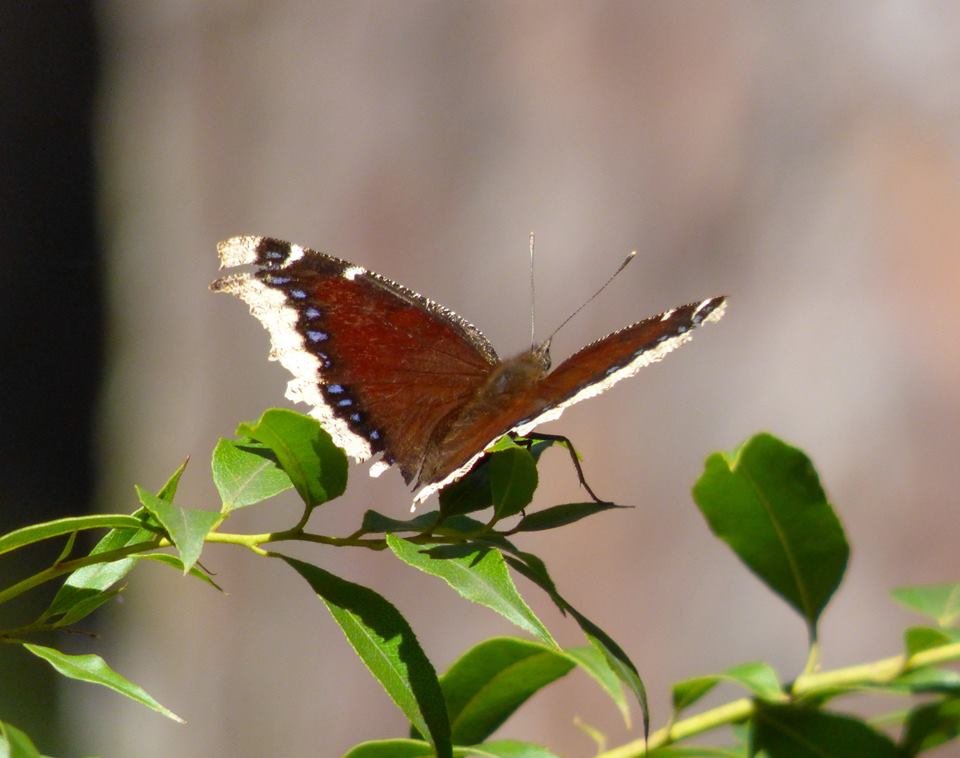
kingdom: Animalia
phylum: Arthropoda
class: Insecta
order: Lepidoptera
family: Nymphalidae
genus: Nymphalis
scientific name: Nymphalis antiopa
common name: Mourning Cloak
